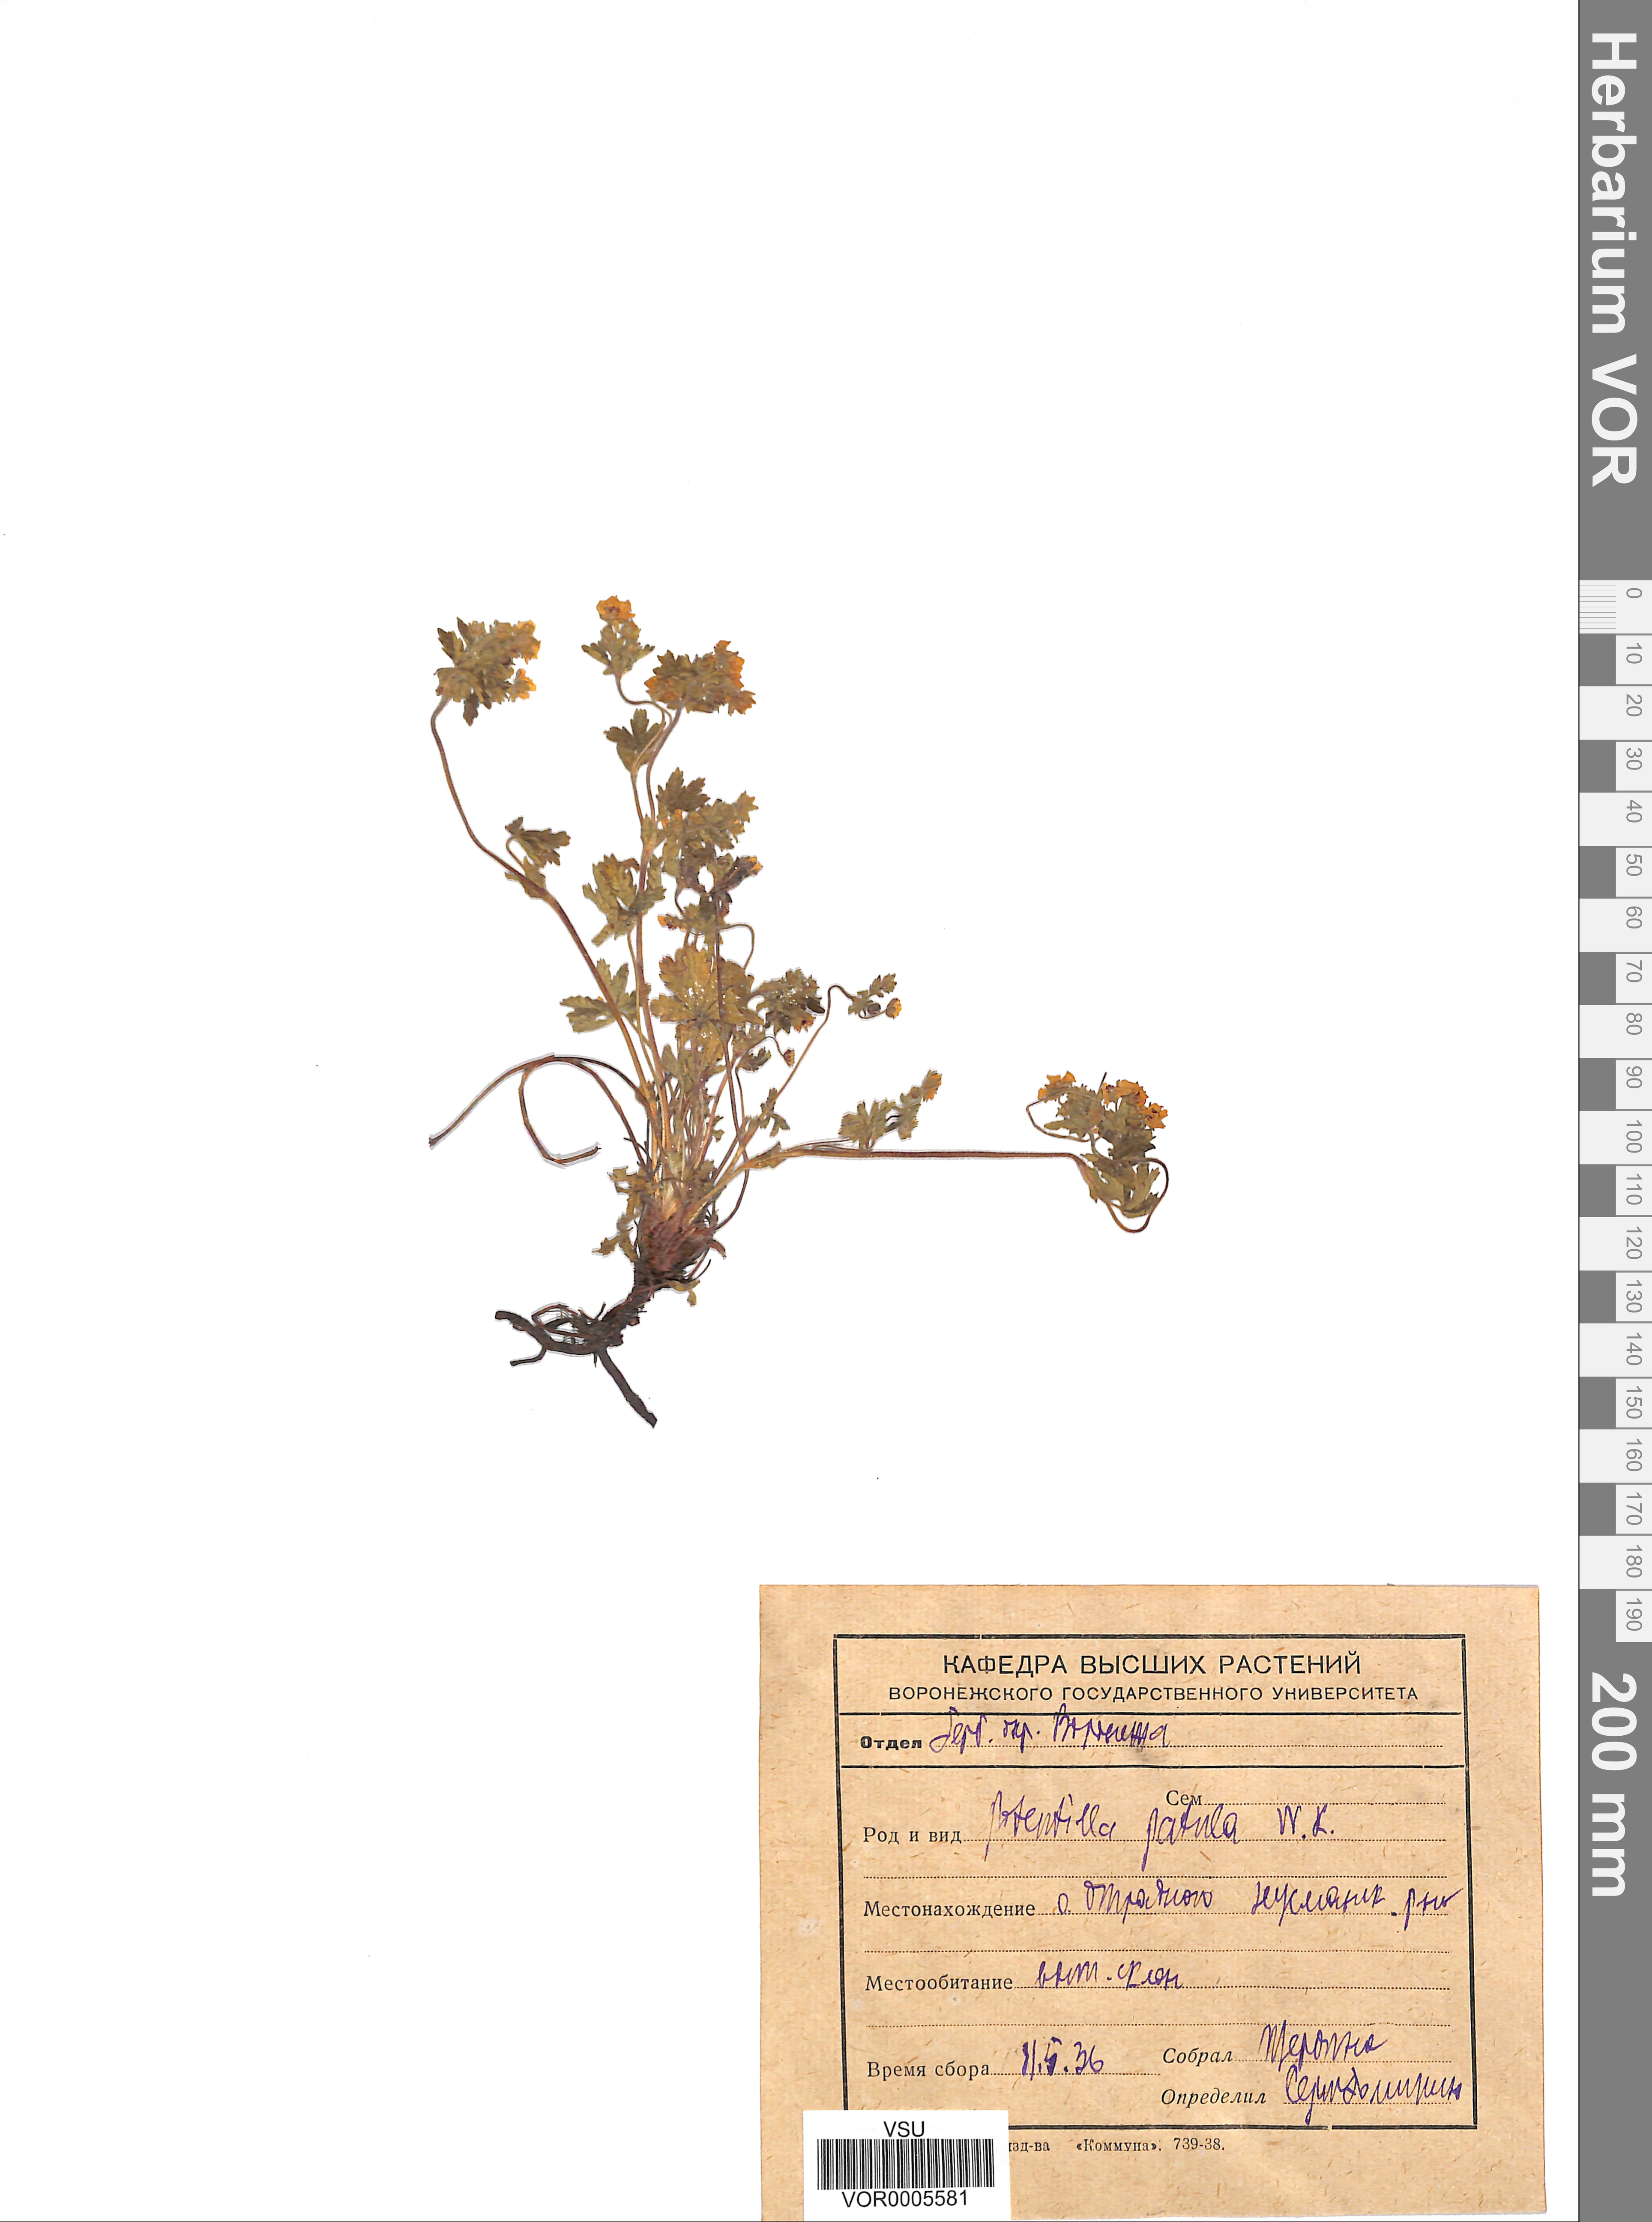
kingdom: Plantae
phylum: Tracheophyta
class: Magnoliopsida
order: Rosales
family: Rosaceae
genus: Potentilla
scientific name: Potentilla patula
